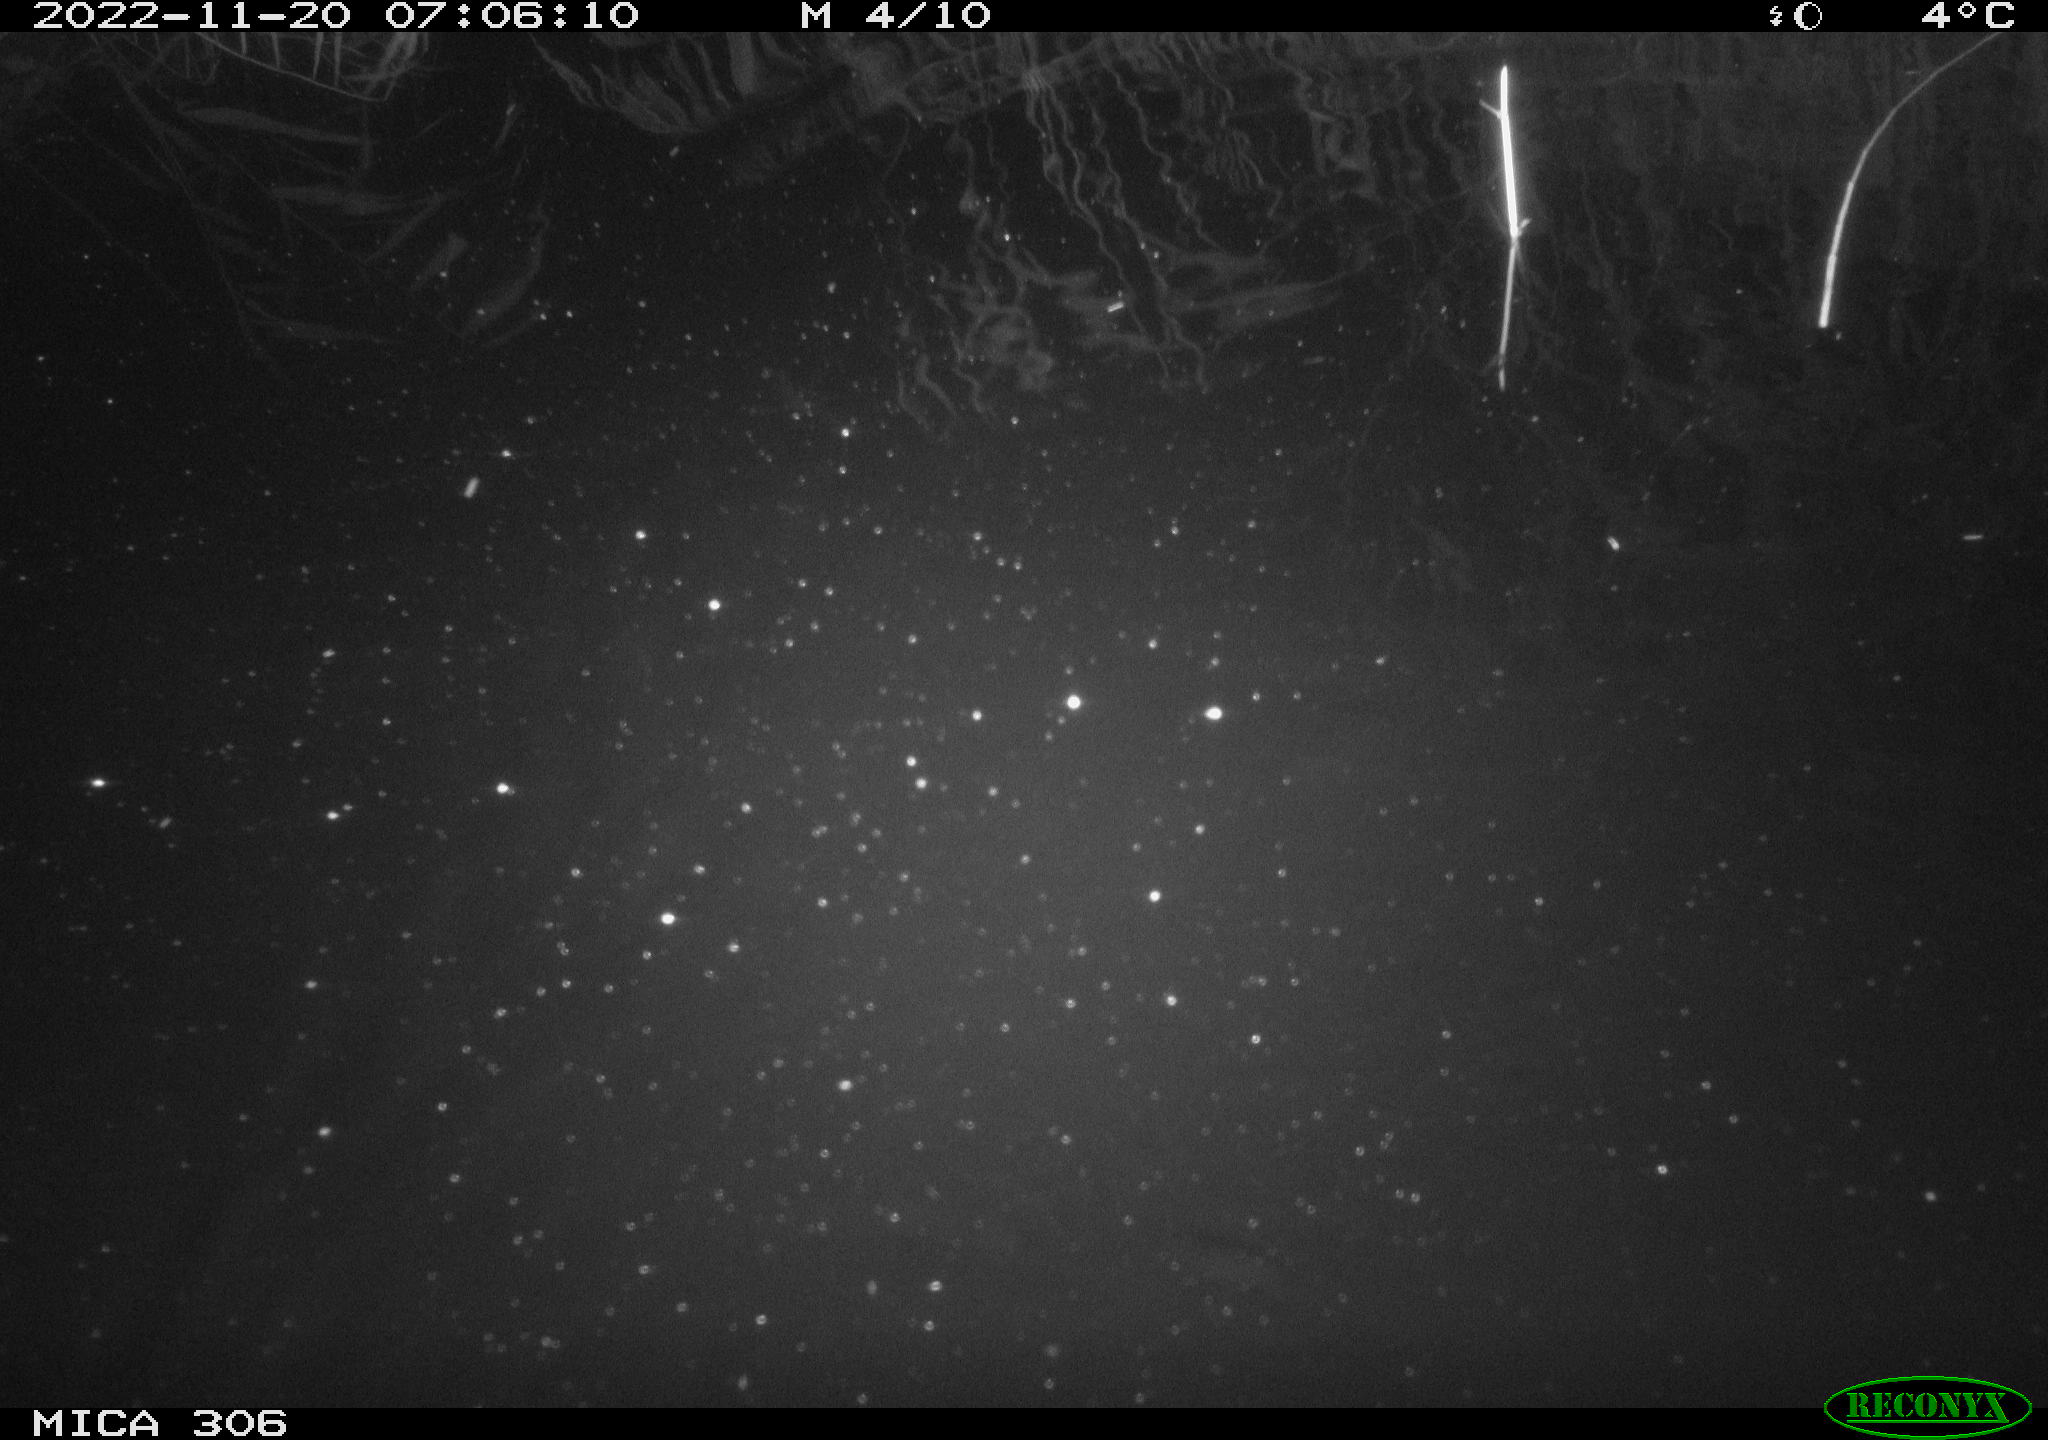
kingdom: Animalia
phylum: Chordata
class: Mammalia
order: Rodentia
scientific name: Rodentia
